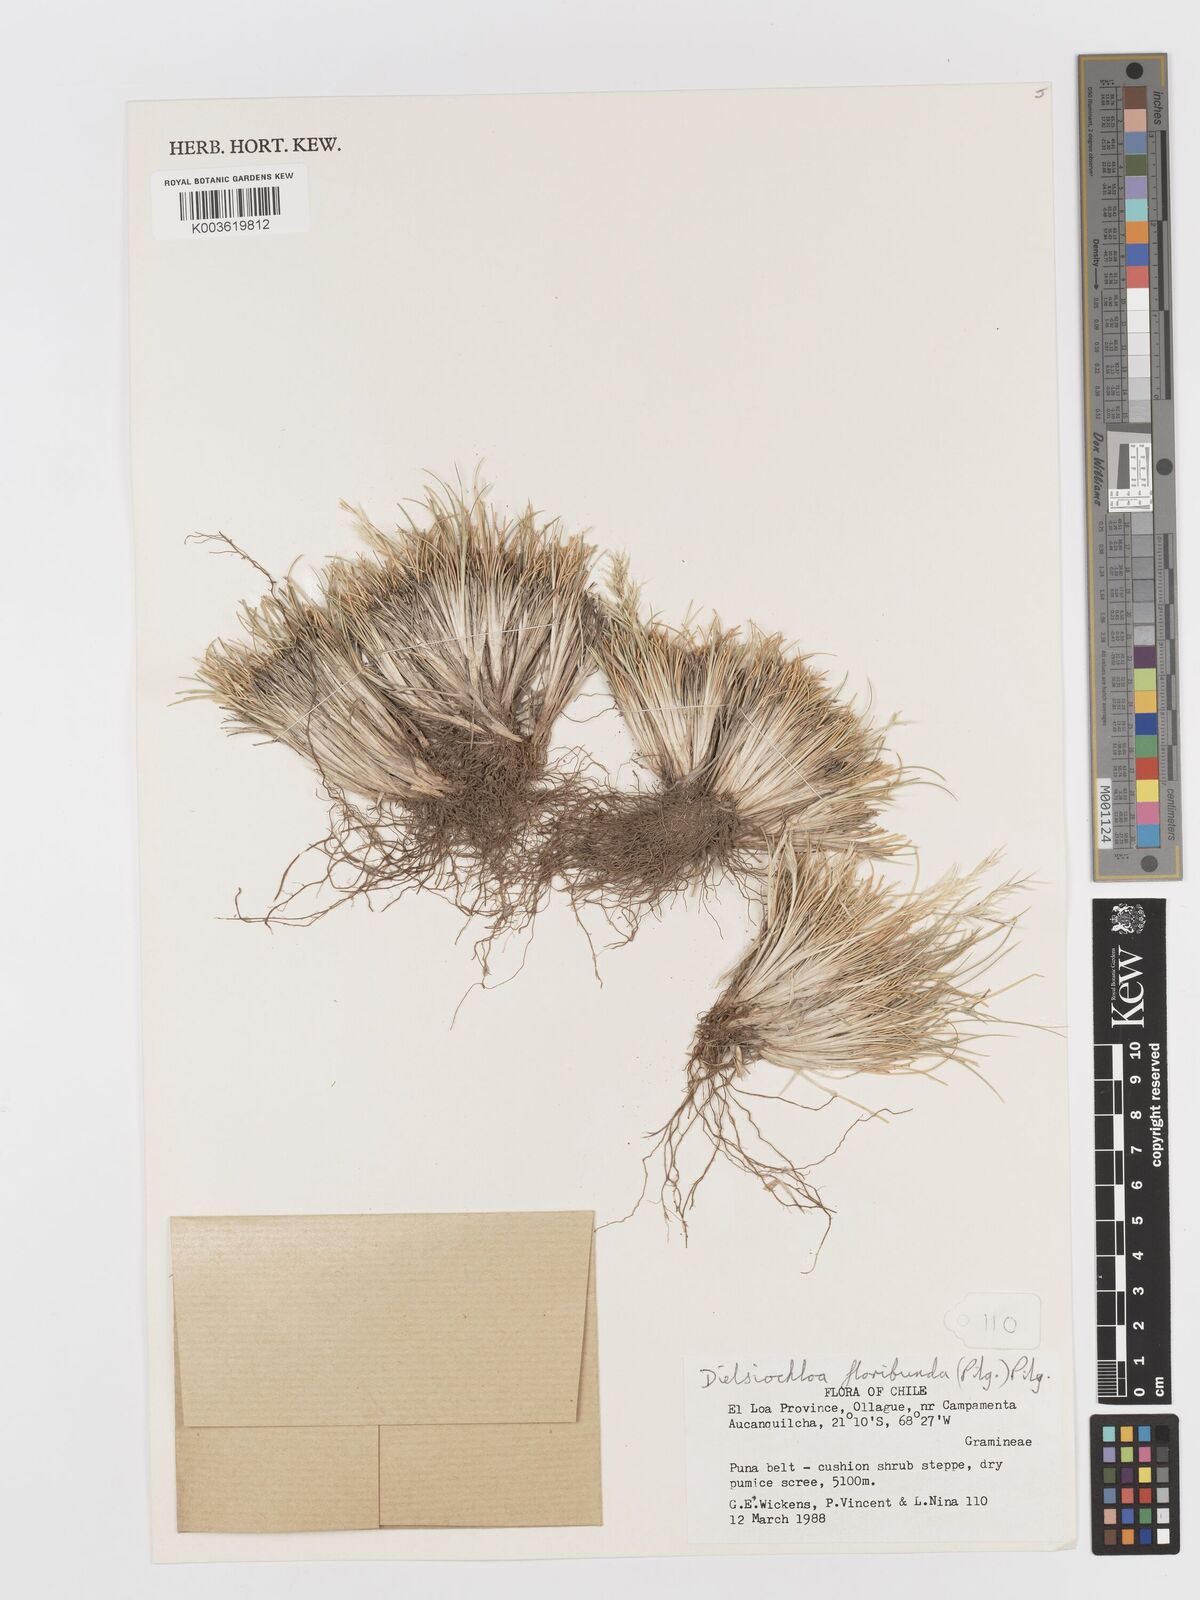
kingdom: Plantae
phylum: Tracheophyta
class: Liliopsida
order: Poales
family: Poaceae
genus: Festuca
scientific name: Festuca floribunda
